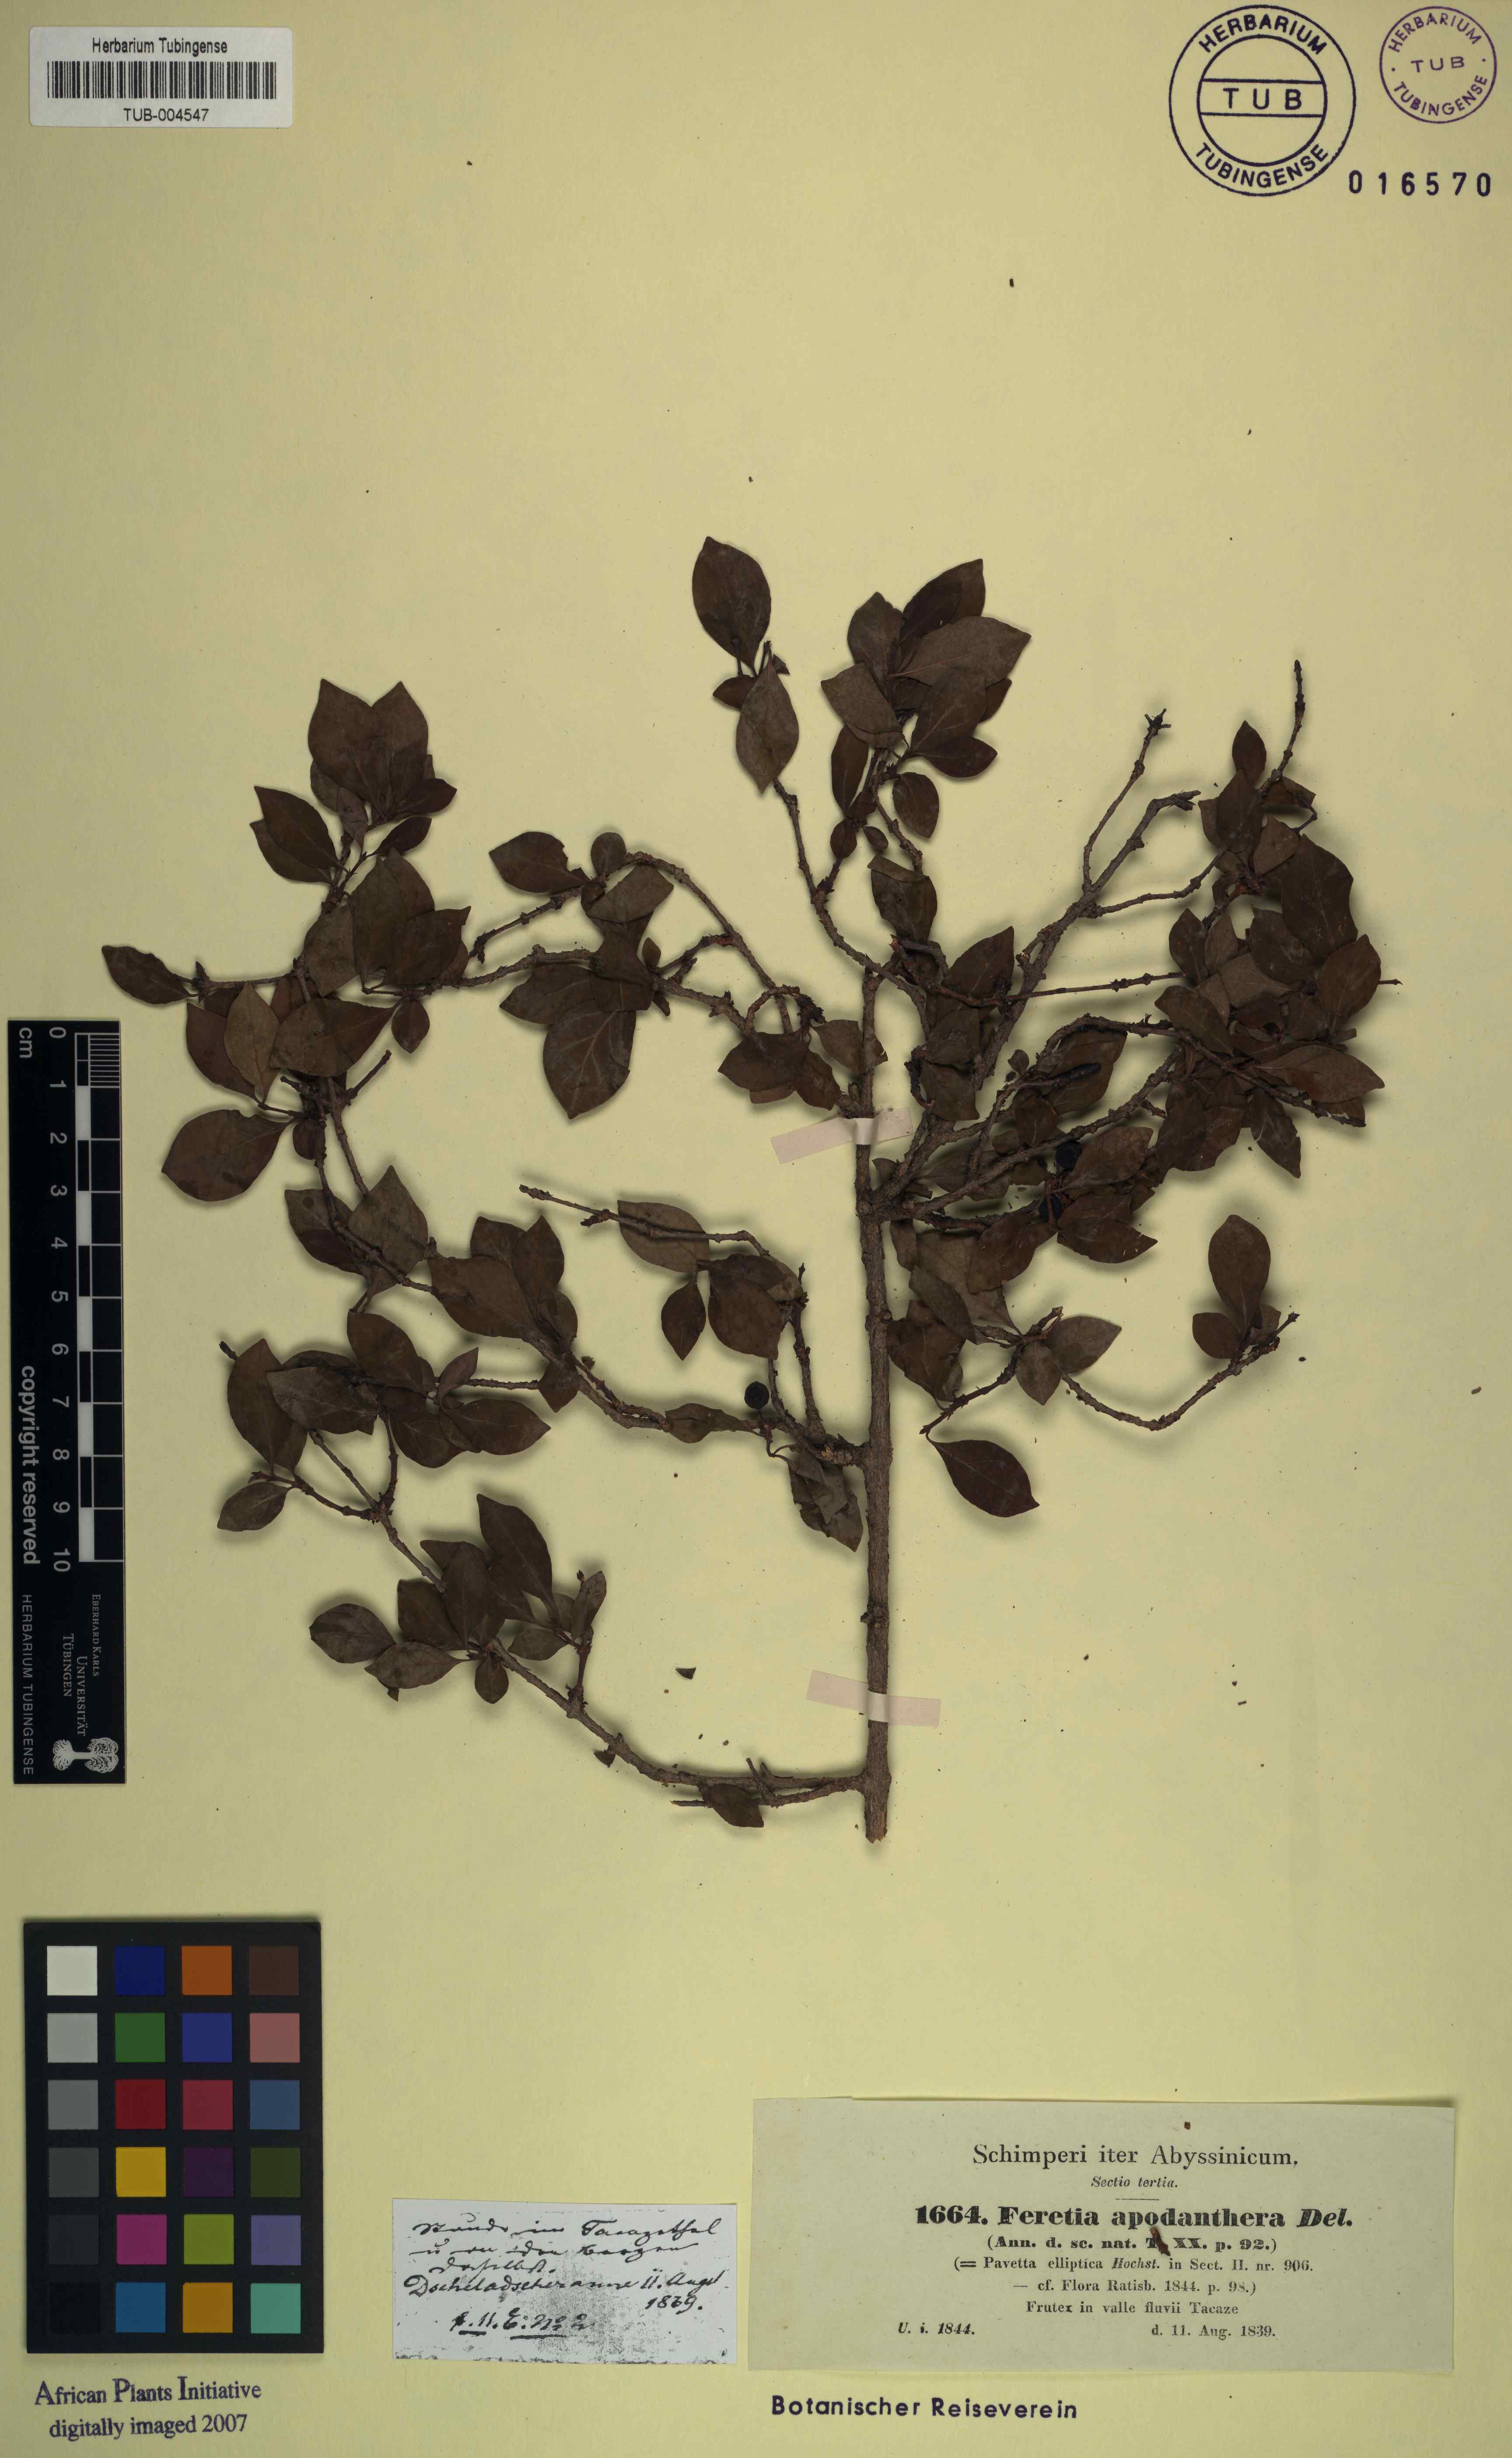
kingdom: Plantae
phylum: Tracheophyta
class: Magnoliopsida
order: Gentianales
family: Rubiaceae
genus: Feretia
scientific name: Feretia apodanthera
